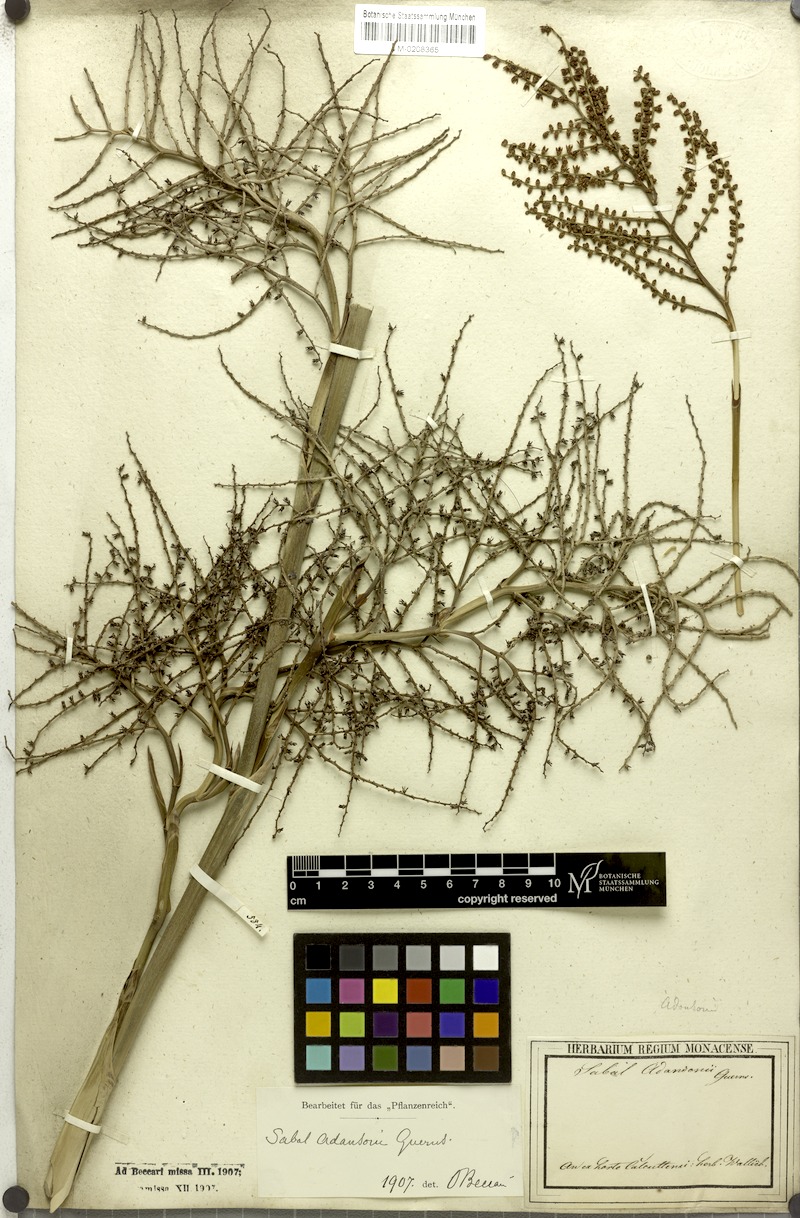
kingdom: Plantae
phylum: Tracheophyta
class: Liliopsida
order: Arecales
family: Arecaceae
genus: Sabal
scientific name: Sabal minor
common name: Dwarf palmetto
